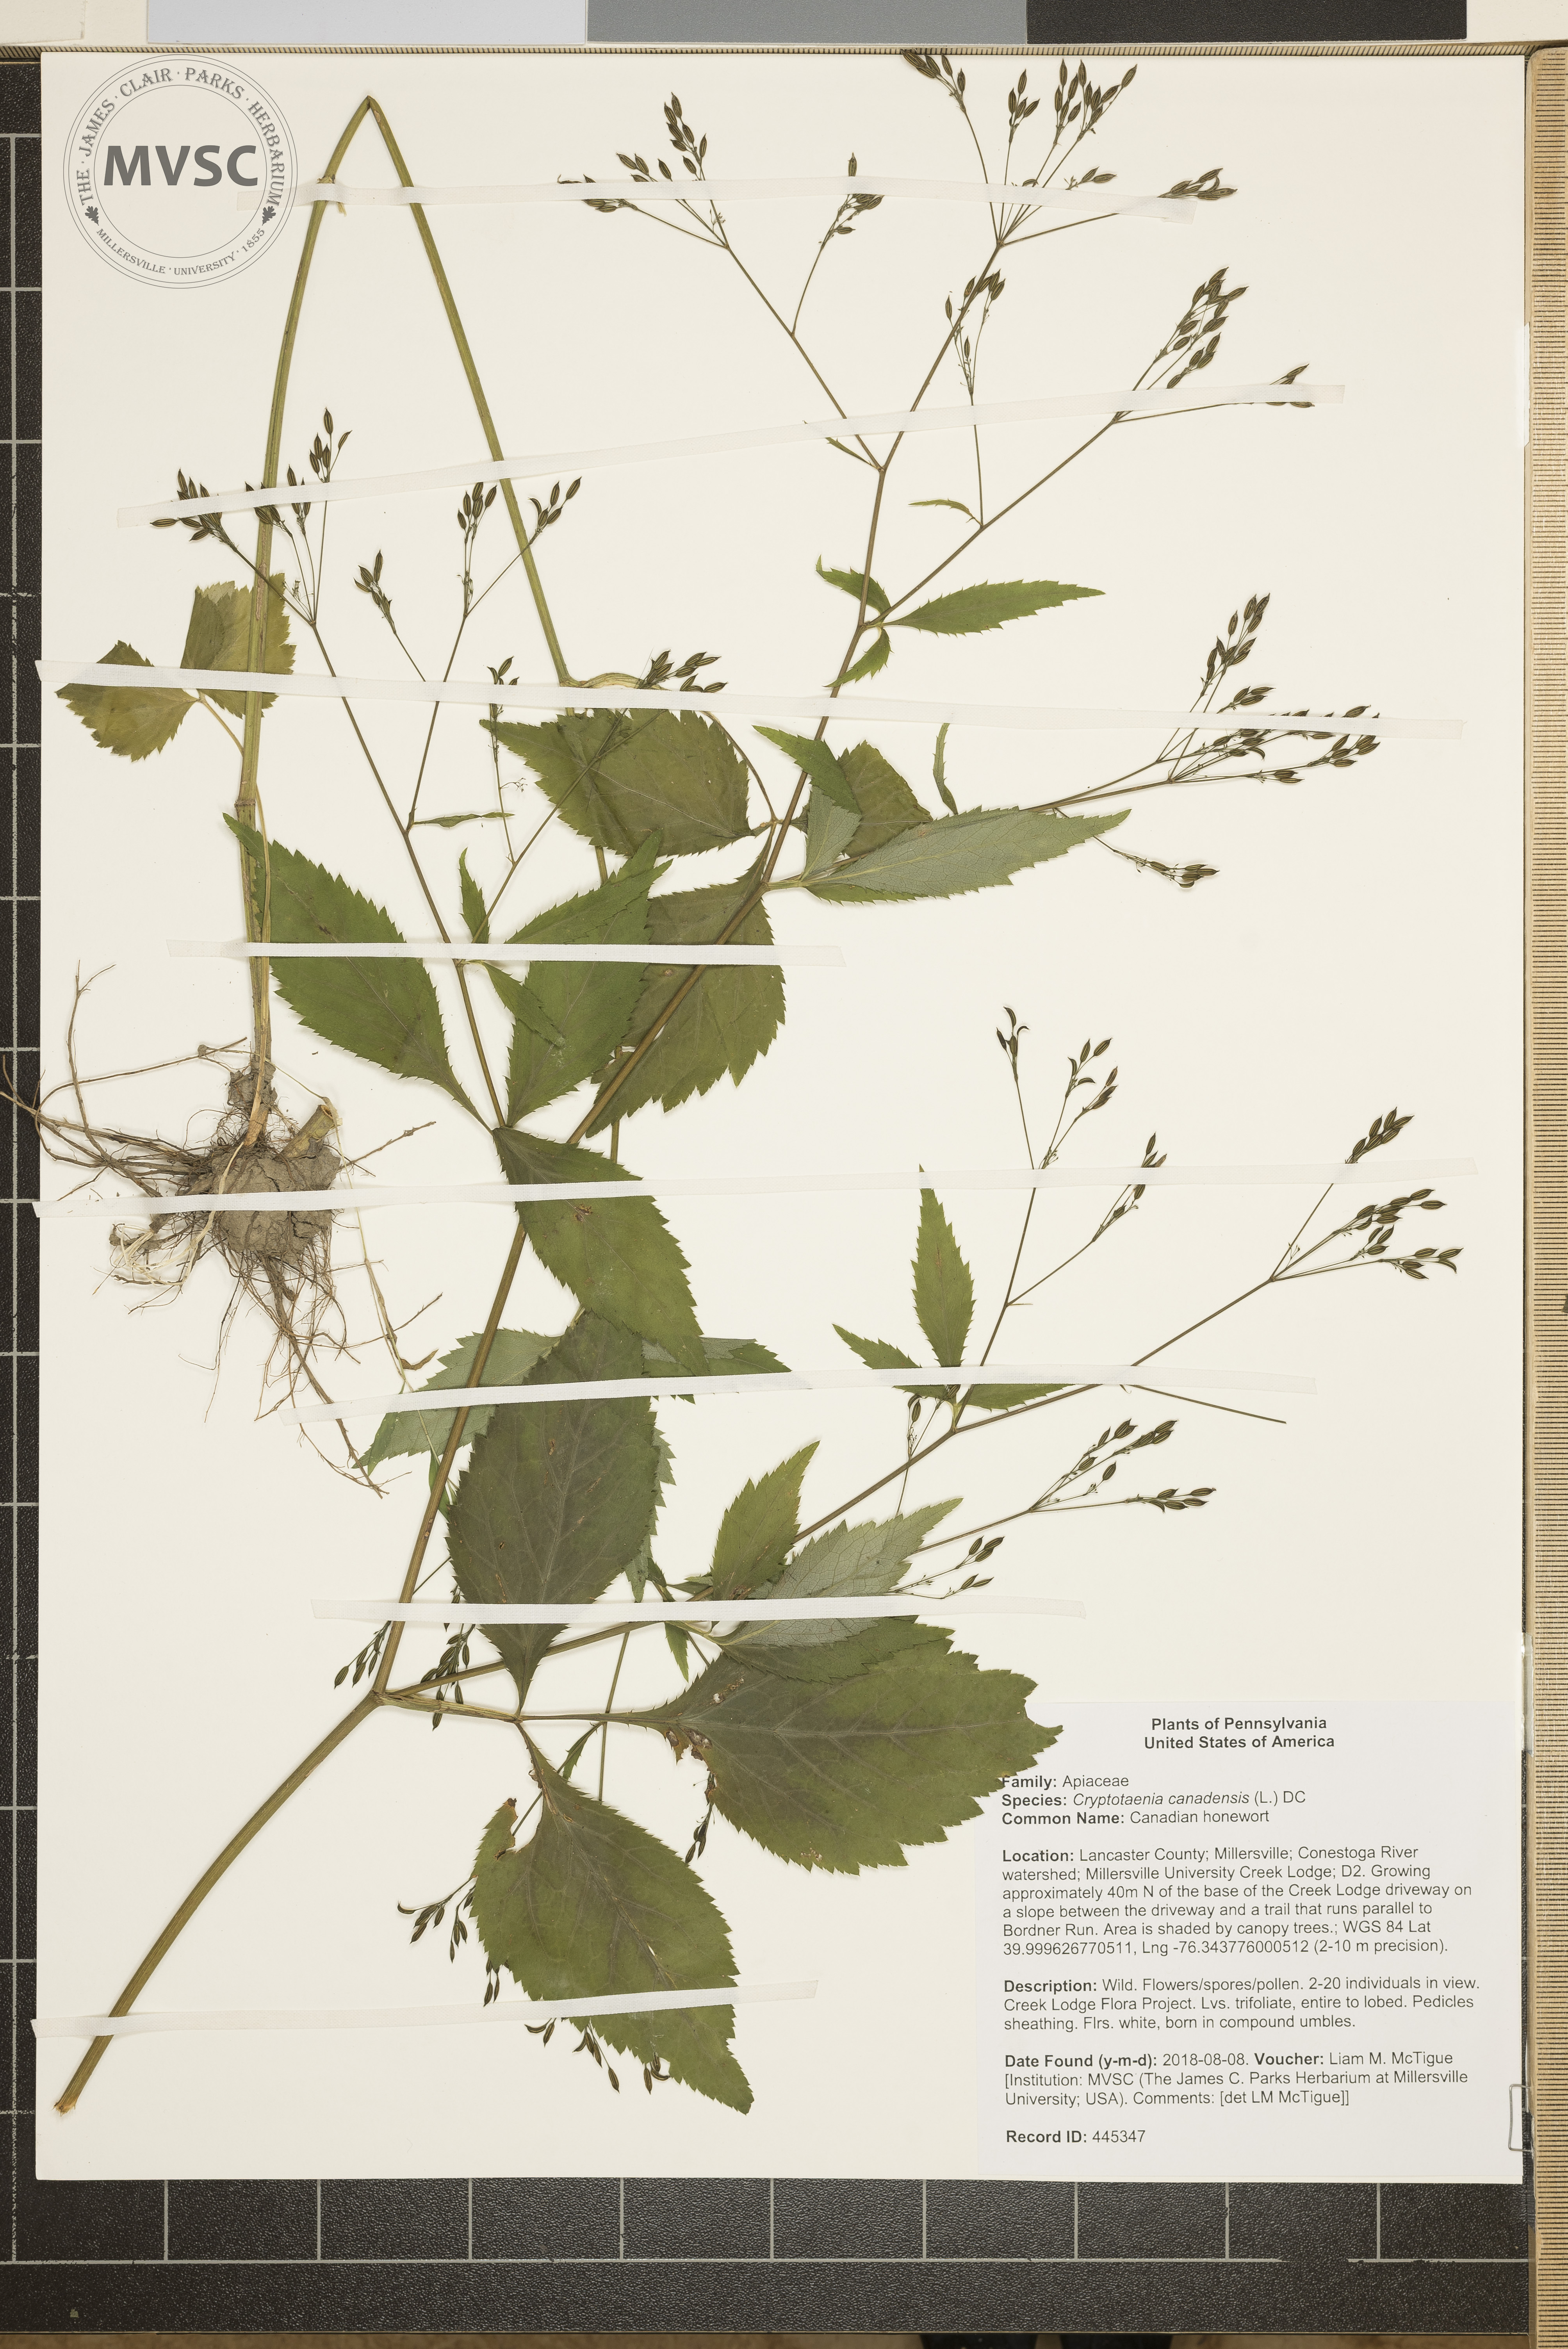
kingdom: Plantae
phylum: Tracheophyta
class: Magnoliopsida
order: Apiales
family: Apiaceae
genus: Cryptotaenia
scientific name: Cryptotaenia canadensis
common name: Canadian honewort
